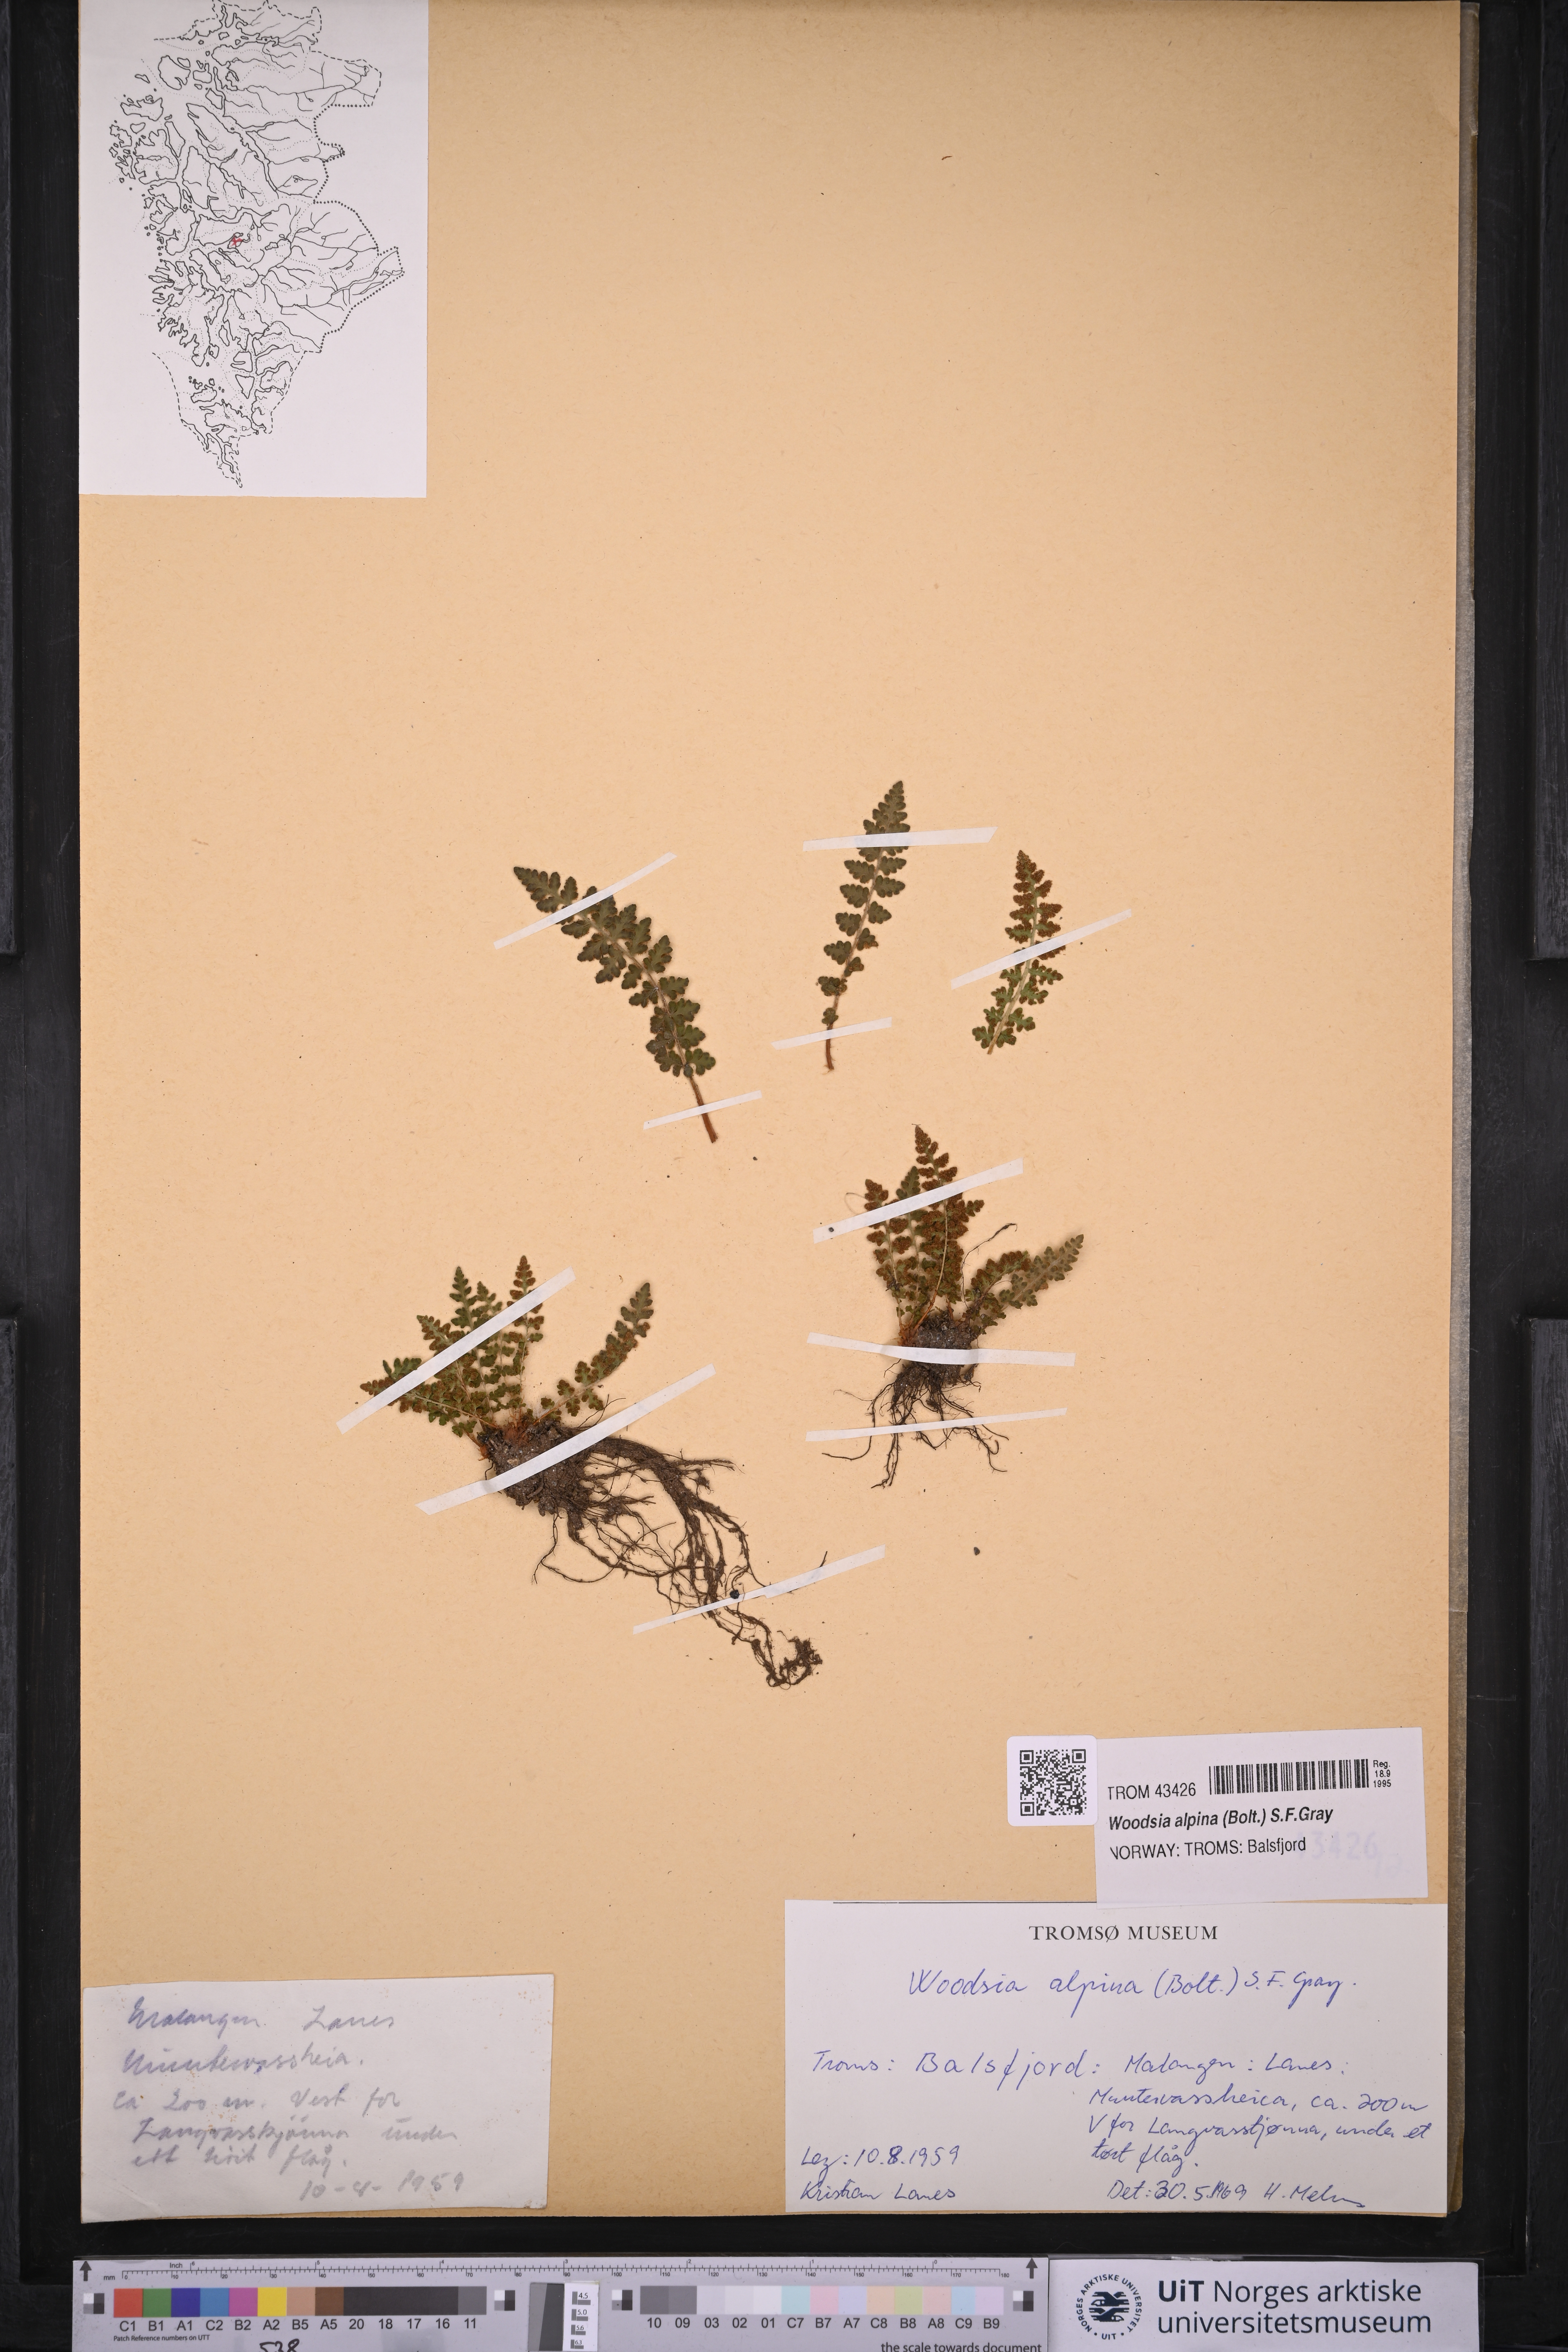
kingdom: Plantae
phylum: Tracheophyta
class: Polypodiopsida
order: Polypodiales
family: Woodsiaceae
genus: Woodsia
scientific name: Woodsia alpina
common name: Alpine woodsia
